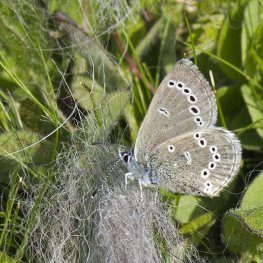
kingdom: Animalia
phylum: Arthropoda
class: Insecta
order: Lepidoptera
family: Lycaenidae
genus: Glaucopsyche
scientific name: Glaucopsyche lygdamus
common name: Silvery Blue
